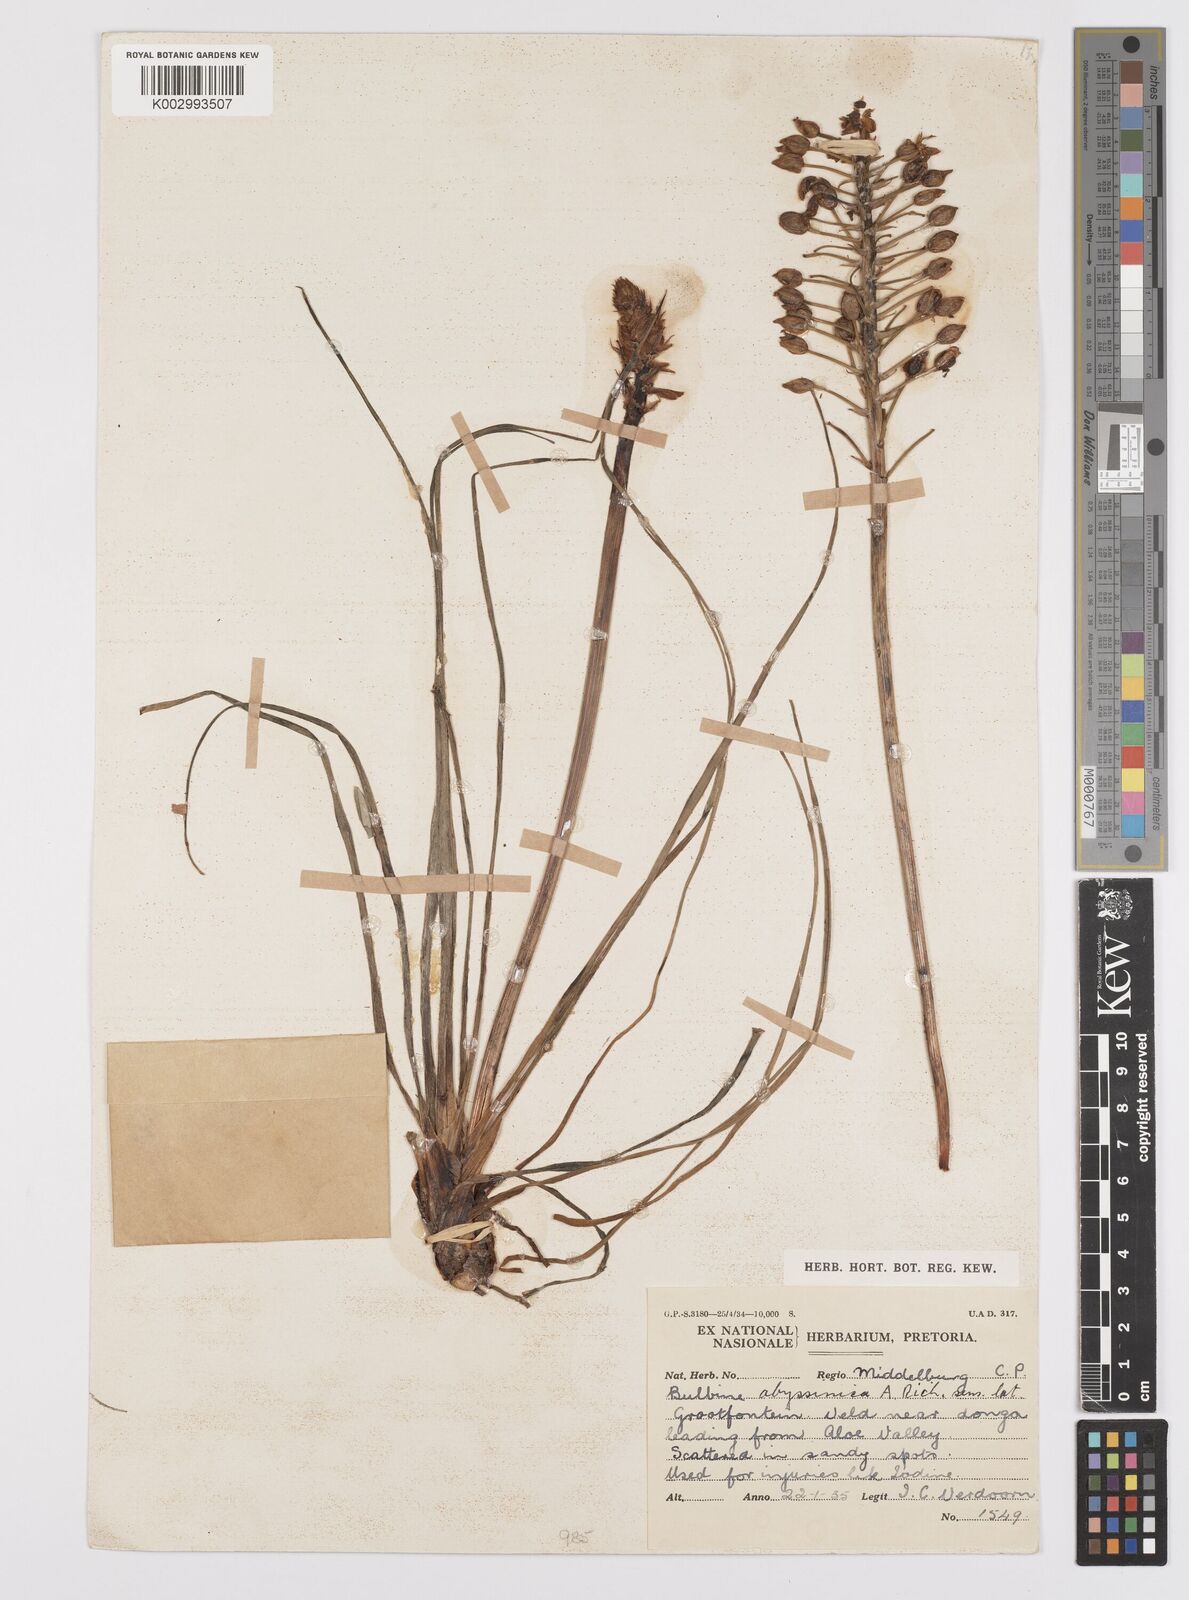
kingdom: Plantae
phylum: Tracheophyta
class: Liliopsida
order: Asparagales
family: Asphodelaceae
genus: Bulbine
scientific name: Bulbine abyssinica
